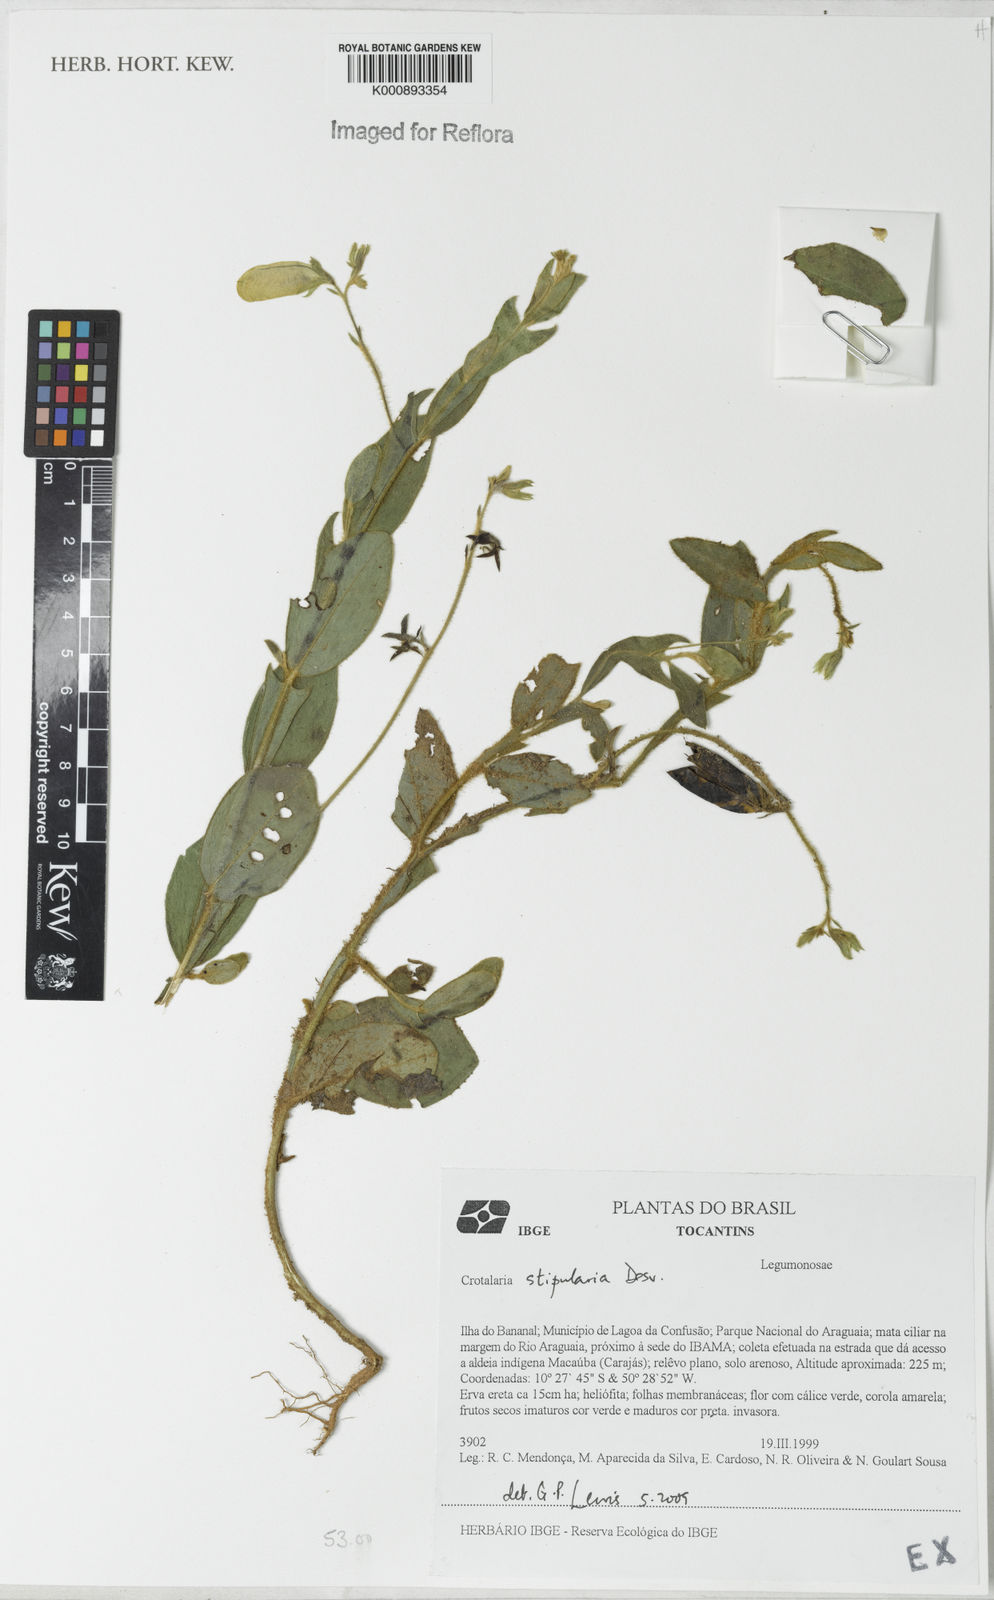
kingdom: Plantae
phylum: Tracheophyta
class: Magnoliopsida
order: Fabales
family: Fabaceae
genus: Crotalaria
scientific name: Crotalaria stipularia
